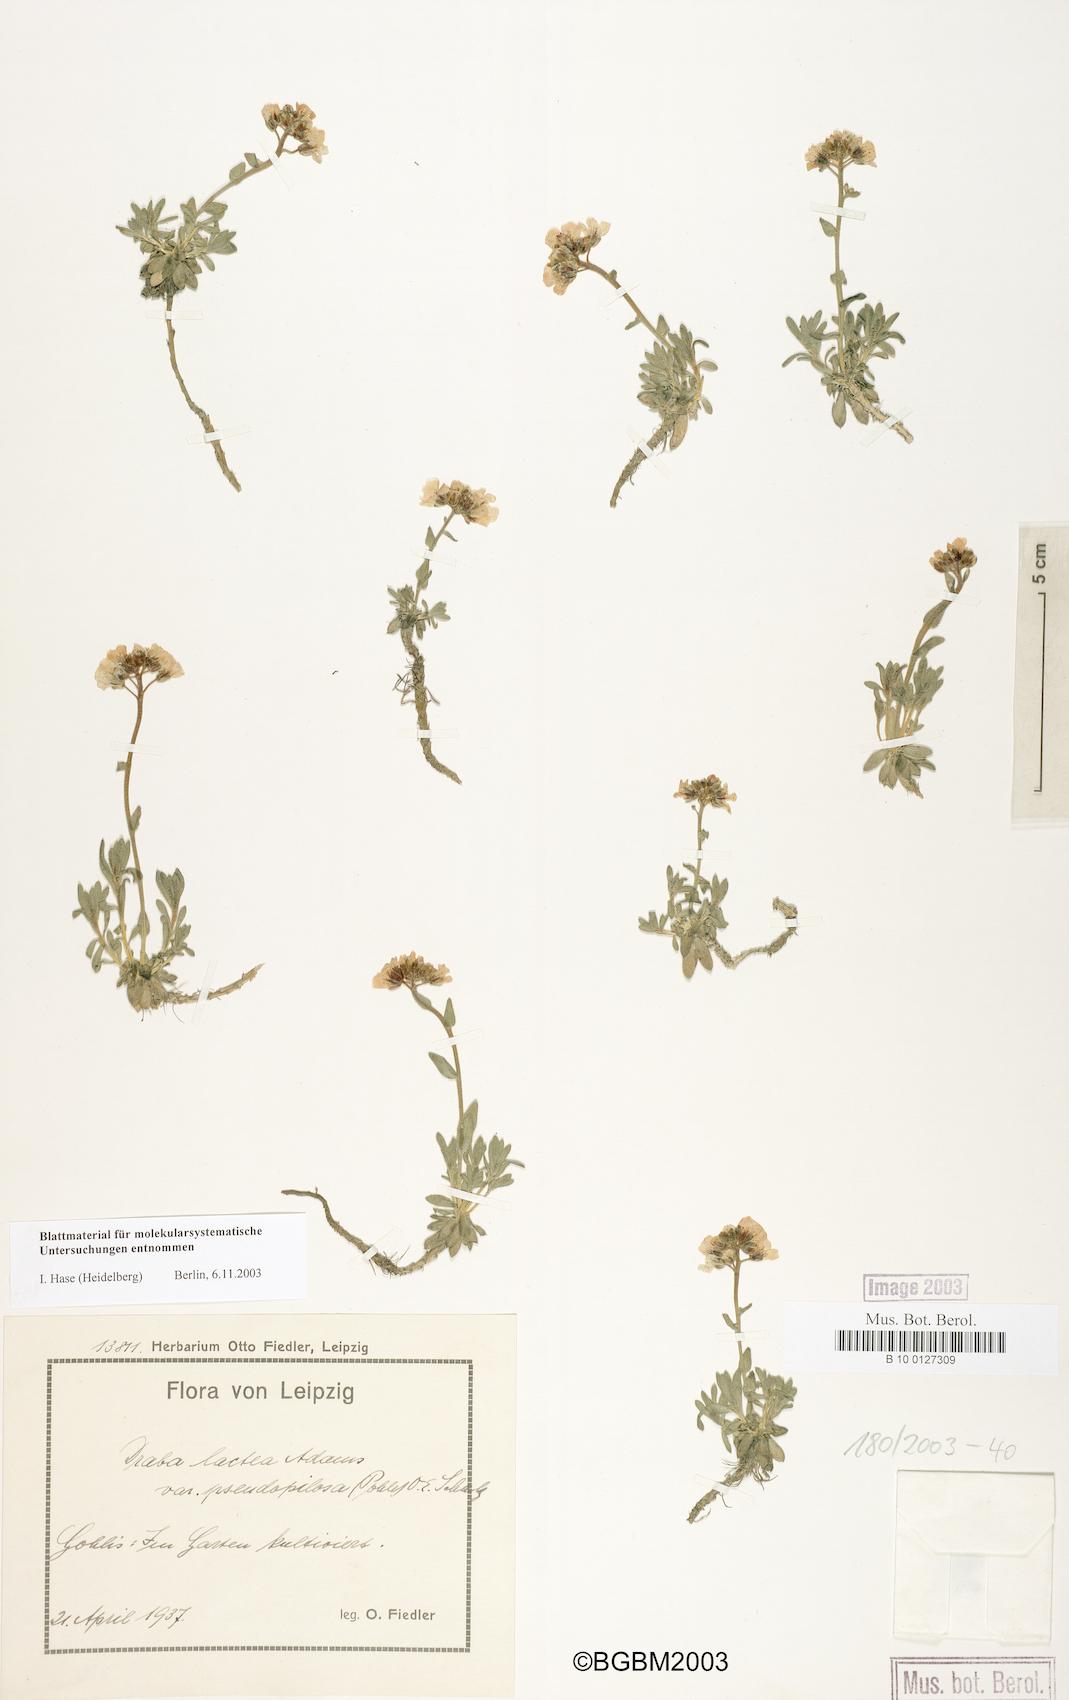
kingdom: Plantae
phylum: Tracheophyta
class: Magnoliopsida
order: Brassicales
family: Brassicaceae
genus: Draba
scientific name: Draba fladnizensis
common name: Austrian draba
